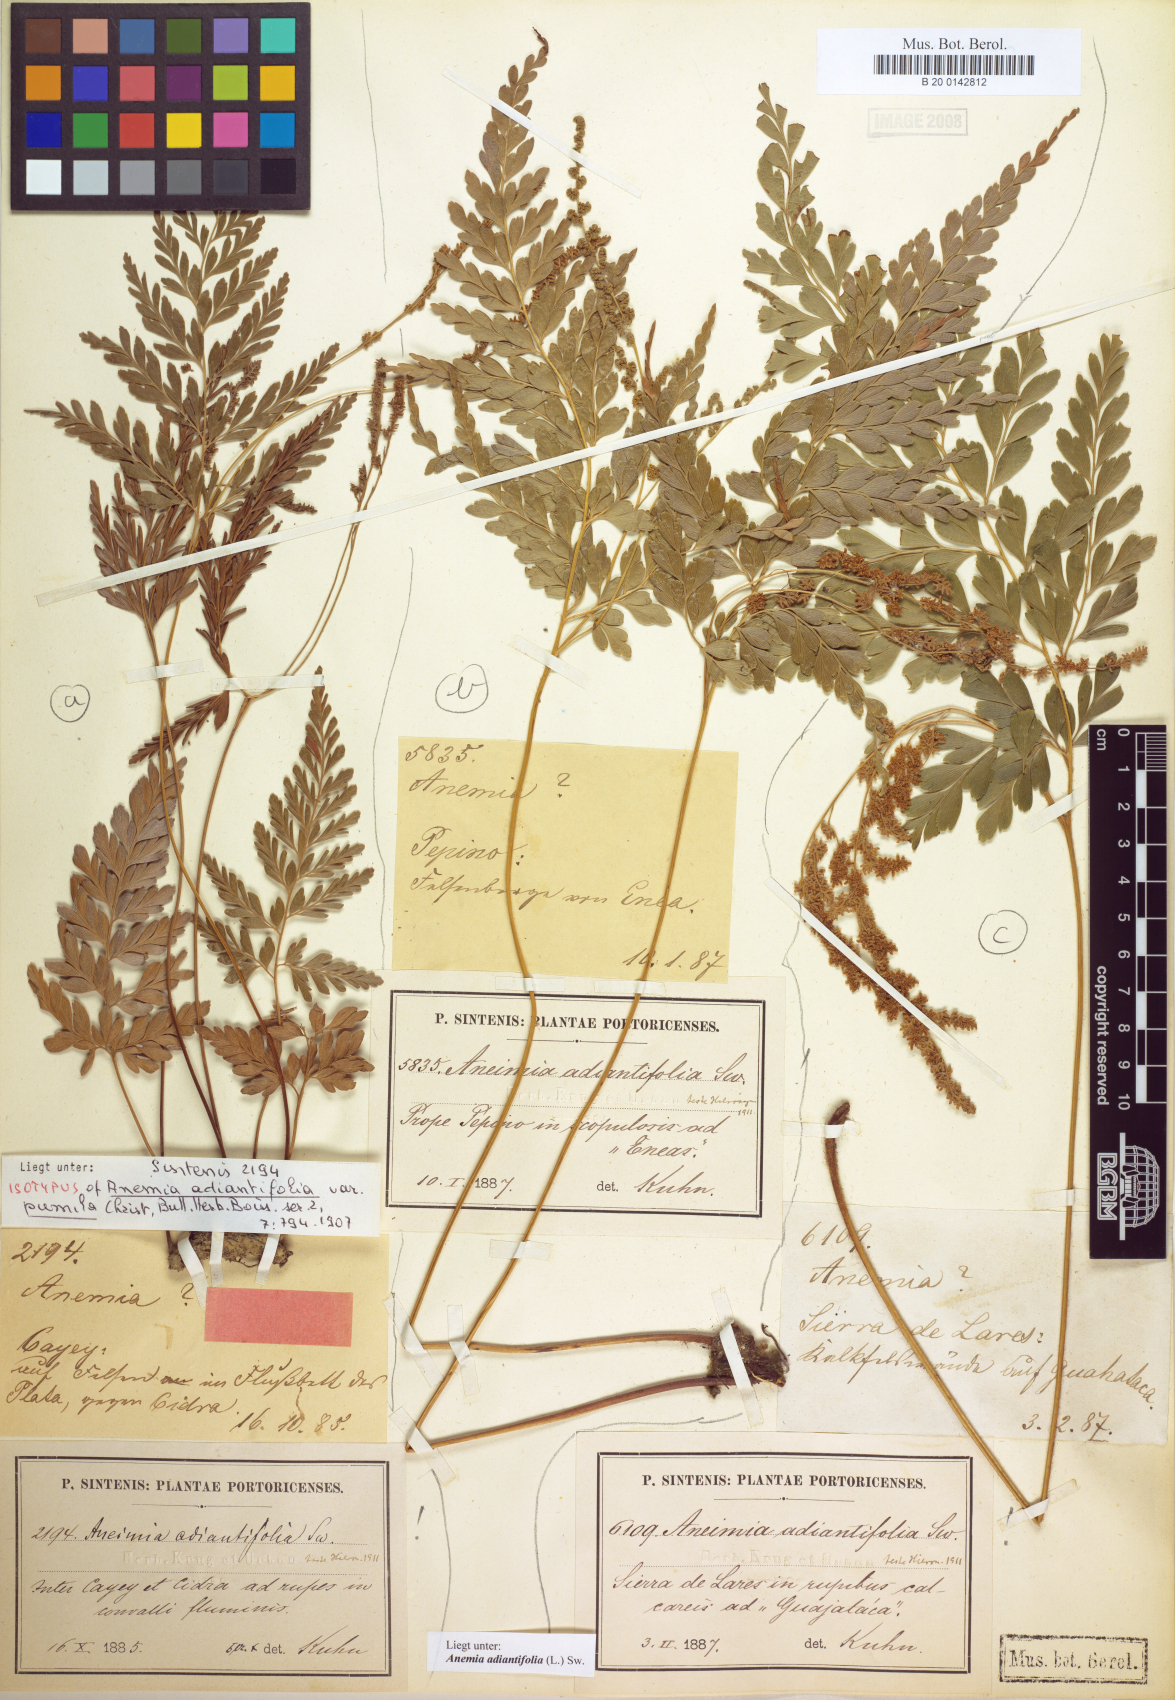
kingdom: Plantae
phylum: Tracheophyta
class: Polypodiopsida
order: Schizaeales
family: Anemiaceae
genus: Anemia
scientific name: Anemia adiantifolia
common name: Pine fern
